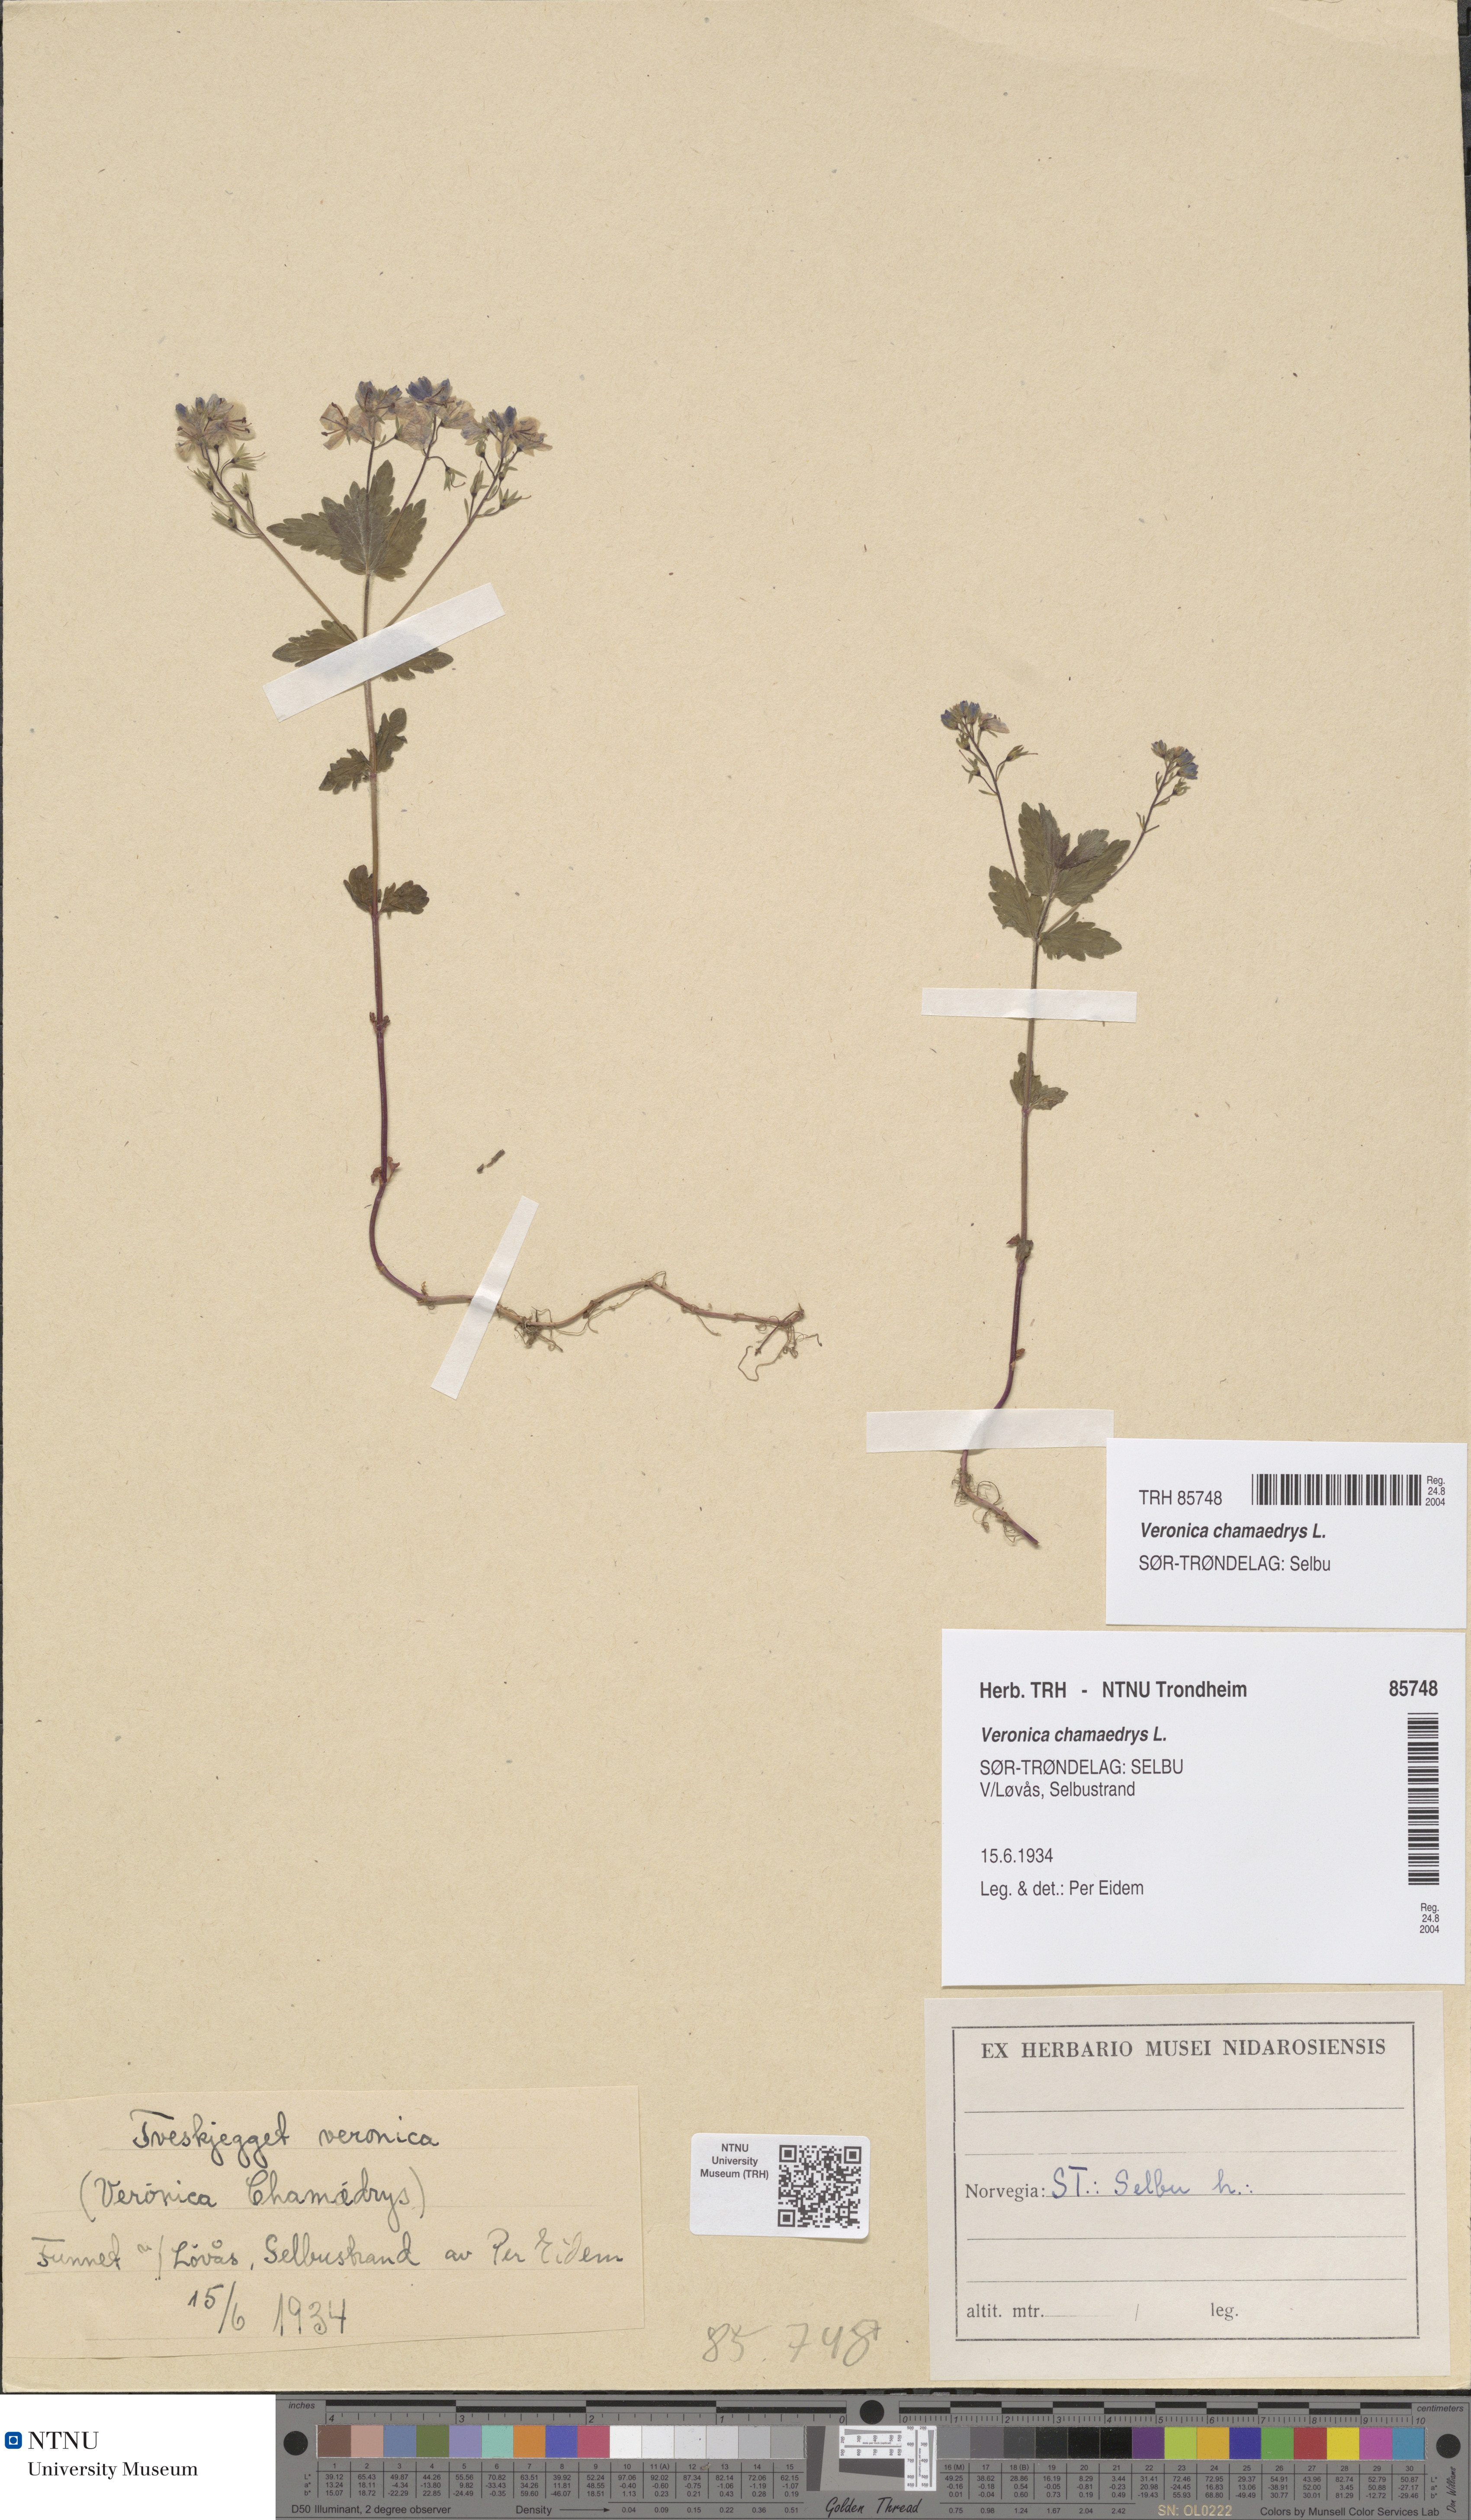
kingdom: Plantae
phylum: Tracheophyta
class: Magnoliopsida
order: Lamiales
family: Plantaginaceae
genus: Veronica
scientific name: Veronica chamaedrys
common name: Germander speedwell
